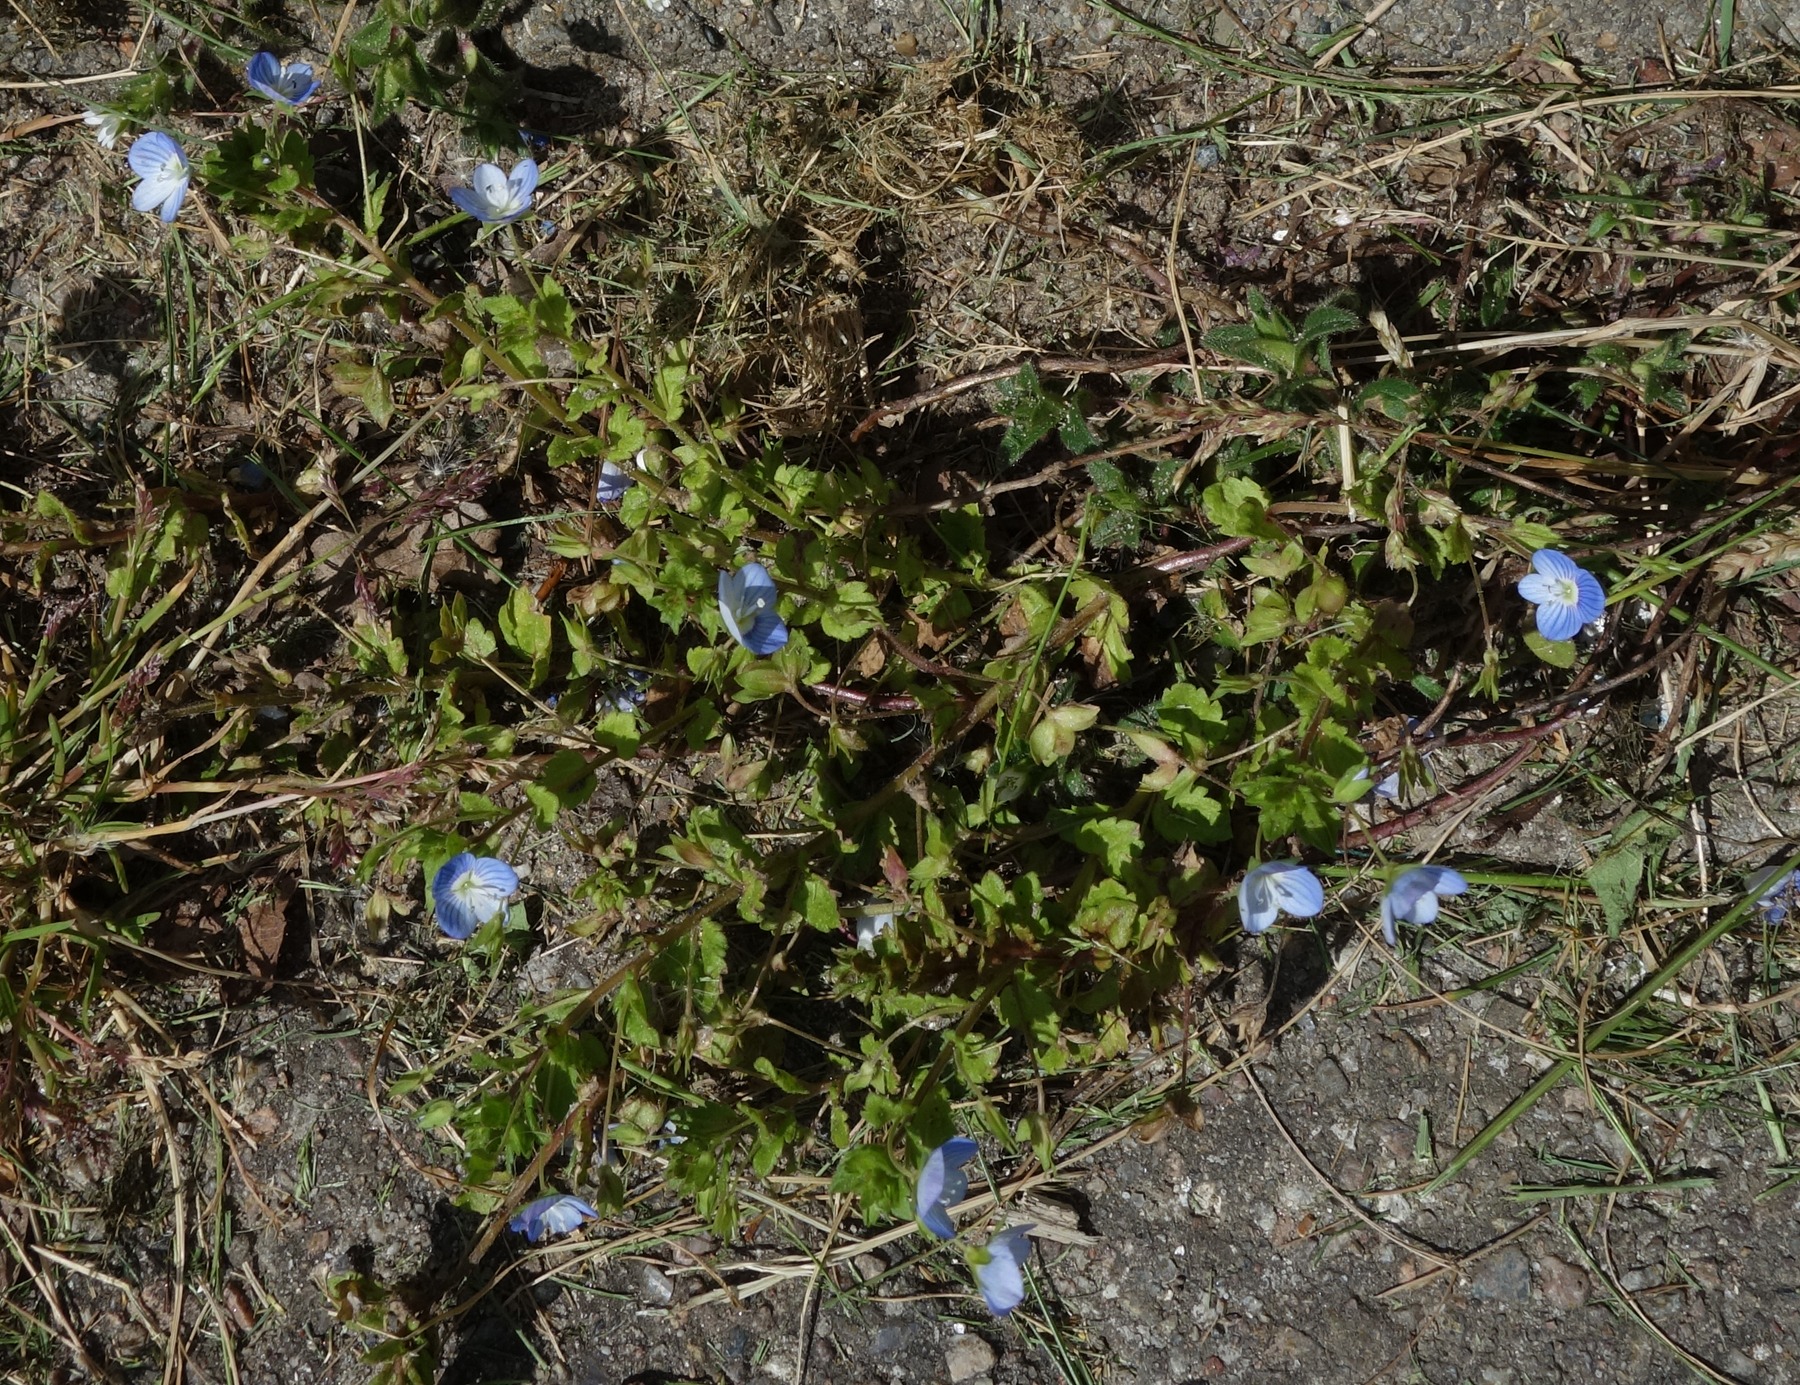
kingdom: Plantae
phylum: Tracheophyta
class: Magnoliopsida
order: Lamiales
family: Plantaginaceae
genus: Veronica
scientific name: Veronica persica
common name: Storkronet ærenpris
